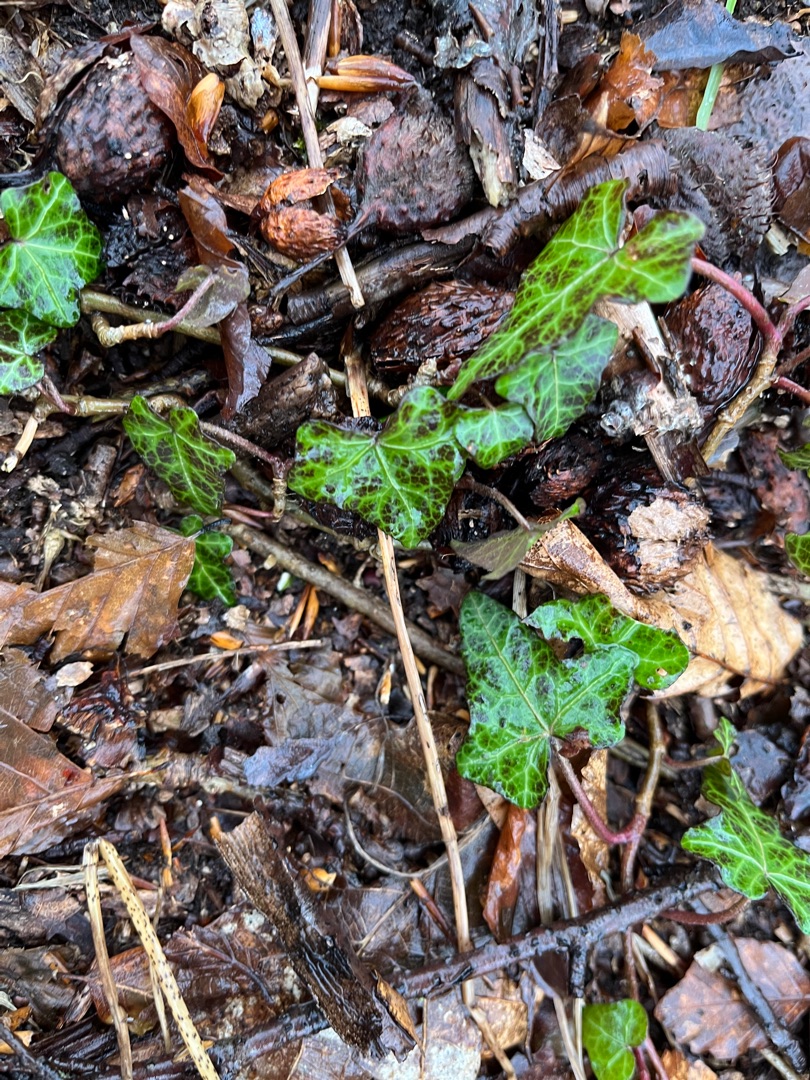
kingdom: Plantae
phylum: Tracheophyta
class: Magnoliopsida
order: Apiales
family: Araliaceae
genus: Hedera
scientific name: Hedera helix
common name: Vedbend
